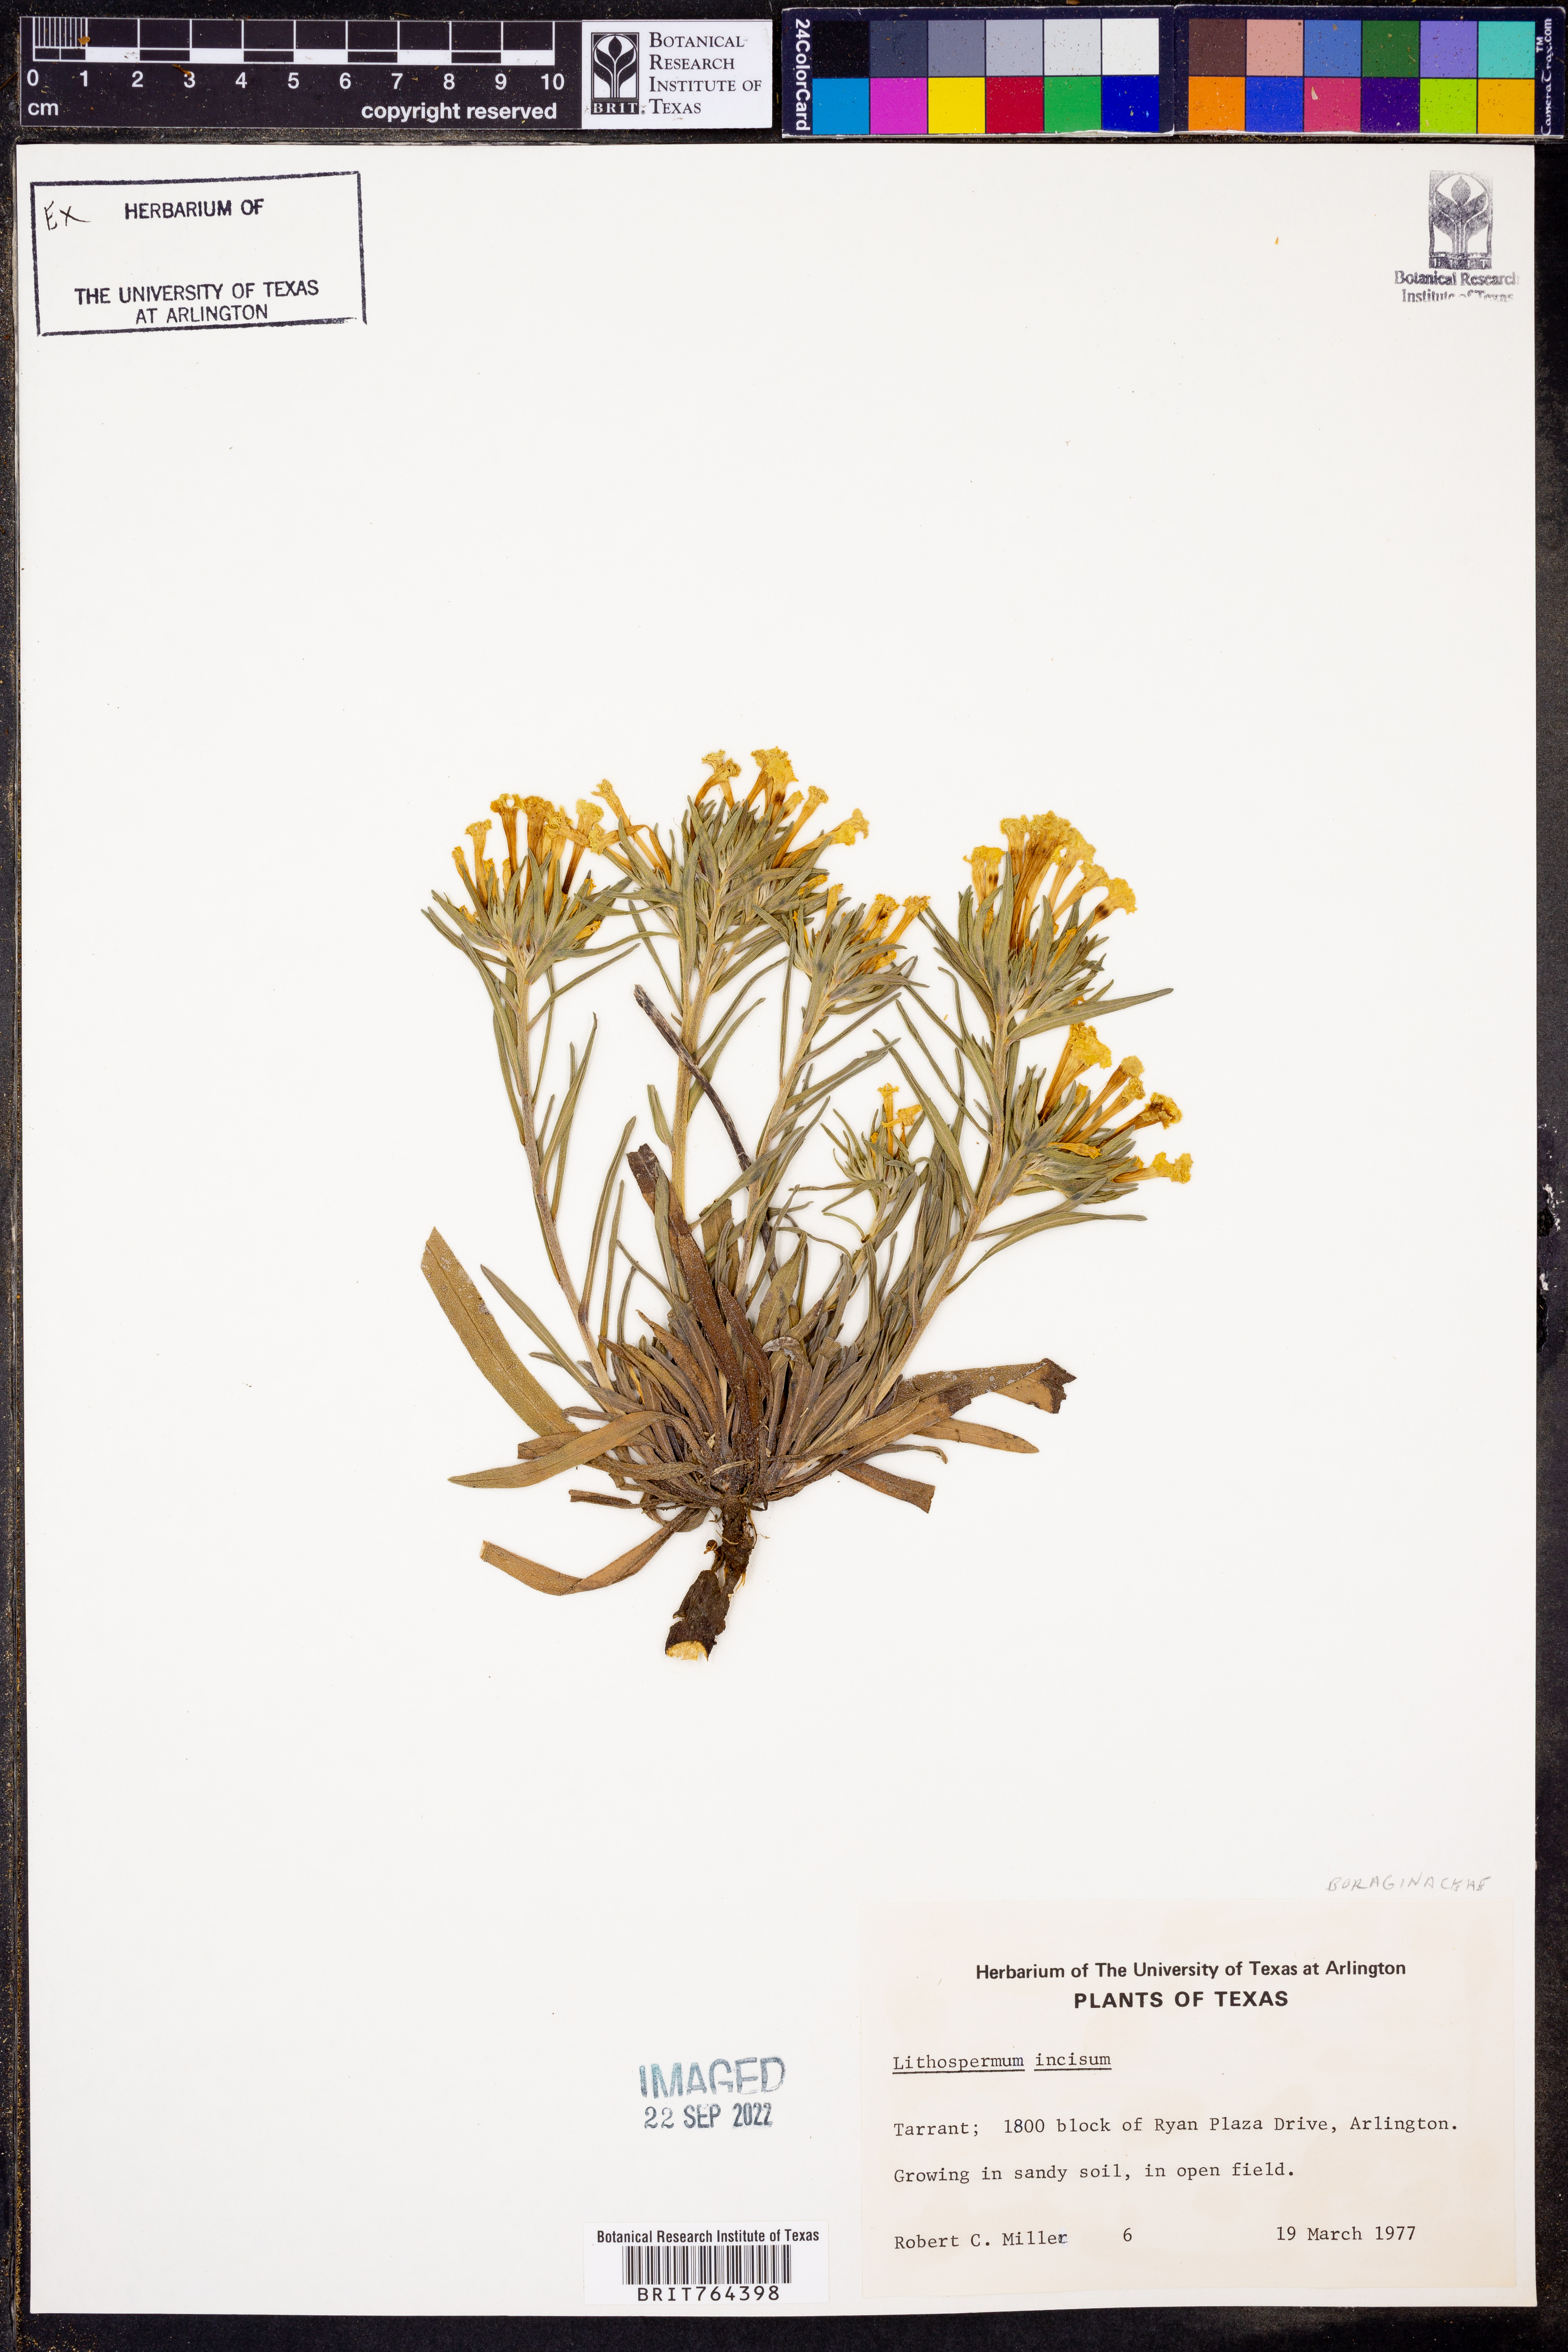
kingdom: Plantae
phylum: Tracheophyta
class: Magnoliopsida
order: Boraginales
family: Boraginaceae
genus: Lithospermum
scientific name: Lithospermum incisum
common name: Fringed gromwell
